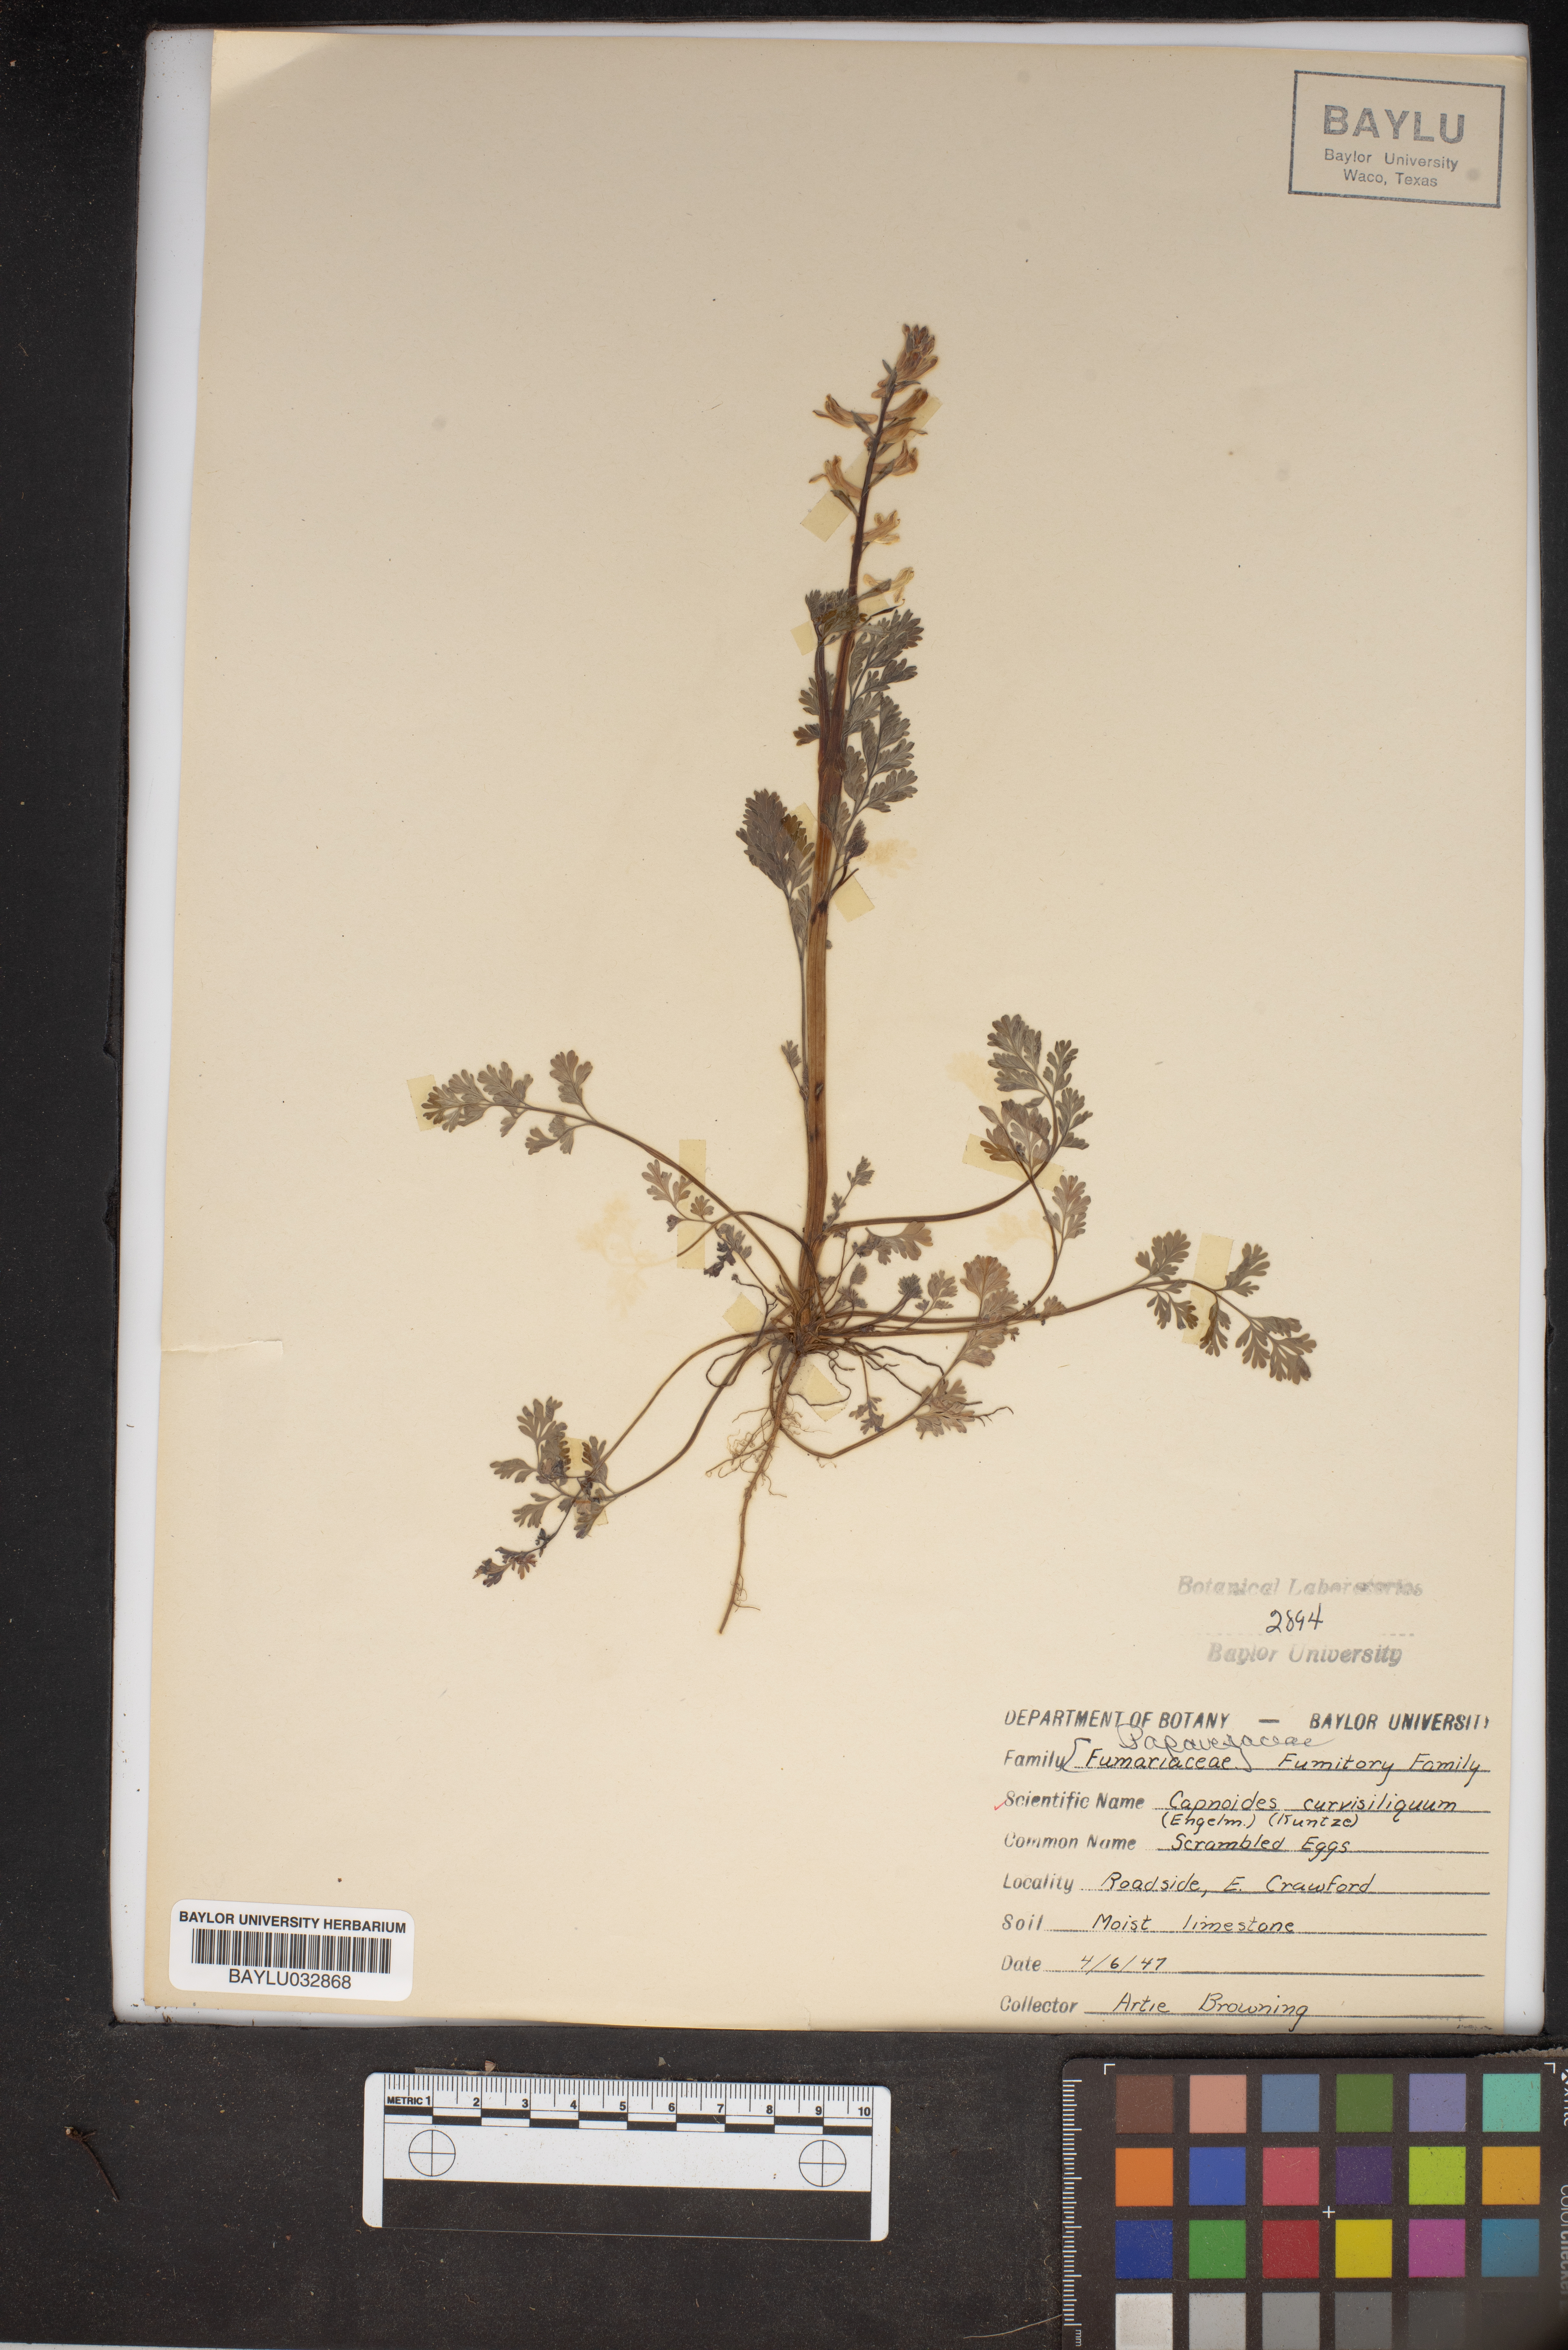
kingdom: Plantae
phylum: Tracheophyta
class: Magnoliopsida
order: Ranunculales
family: Papaveraceae
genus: Corydalis
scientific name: Corydalis curvisiliqua
